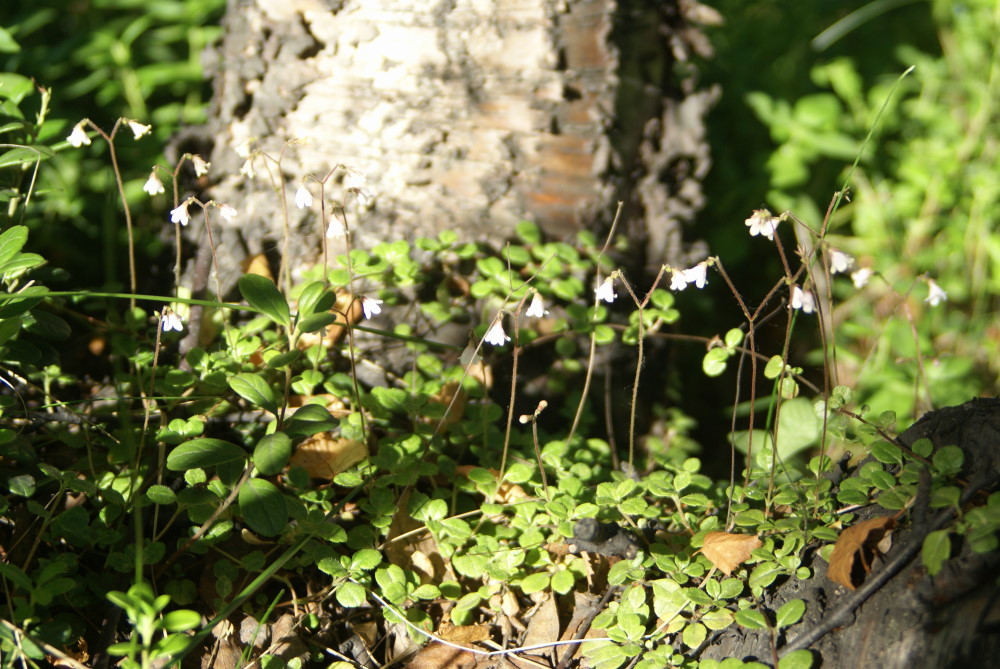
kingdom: Plantae
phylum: Tracheophyta
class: Magnoliopsida
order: Dipsacales
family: Caprifoliaceae
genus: Linnaea
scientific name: Linnaea borealis
